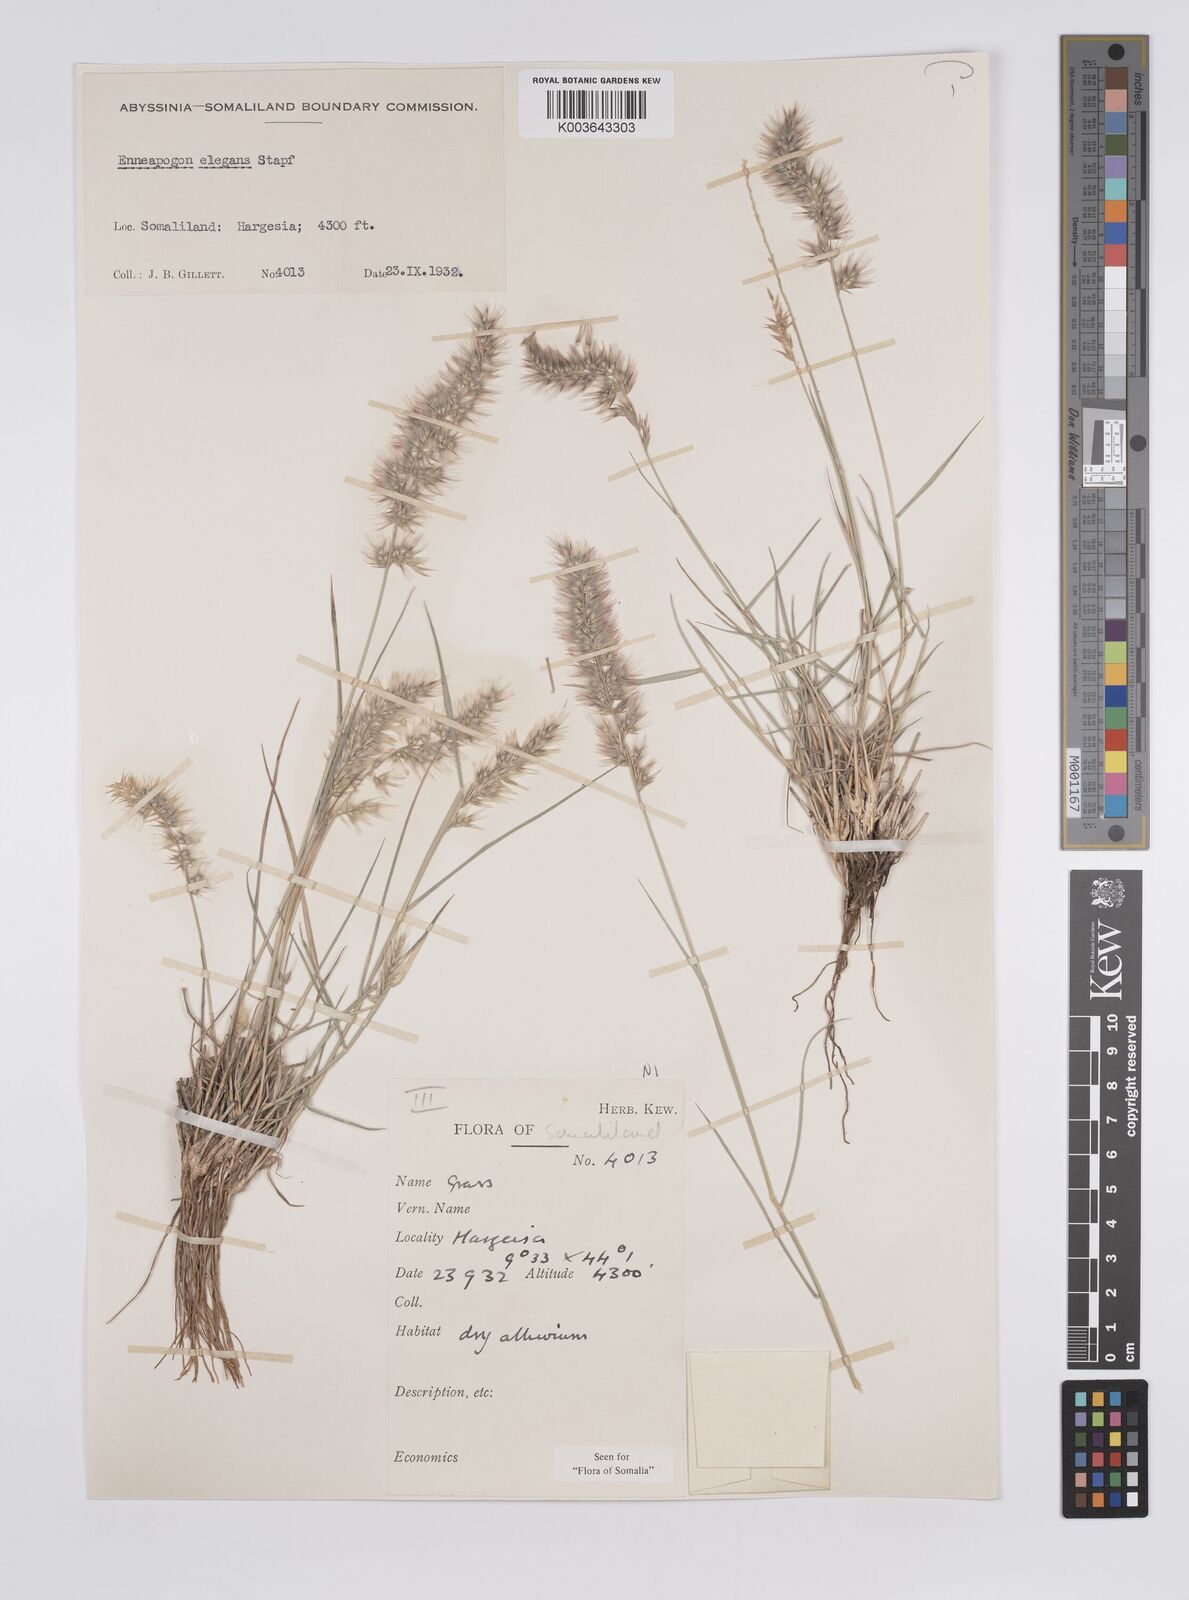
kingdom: Plantae
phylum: Tracheophyta
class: Liliopsida
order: Poales
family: Poaceae
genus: Enneapogon
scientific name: Enneapogon persicus
